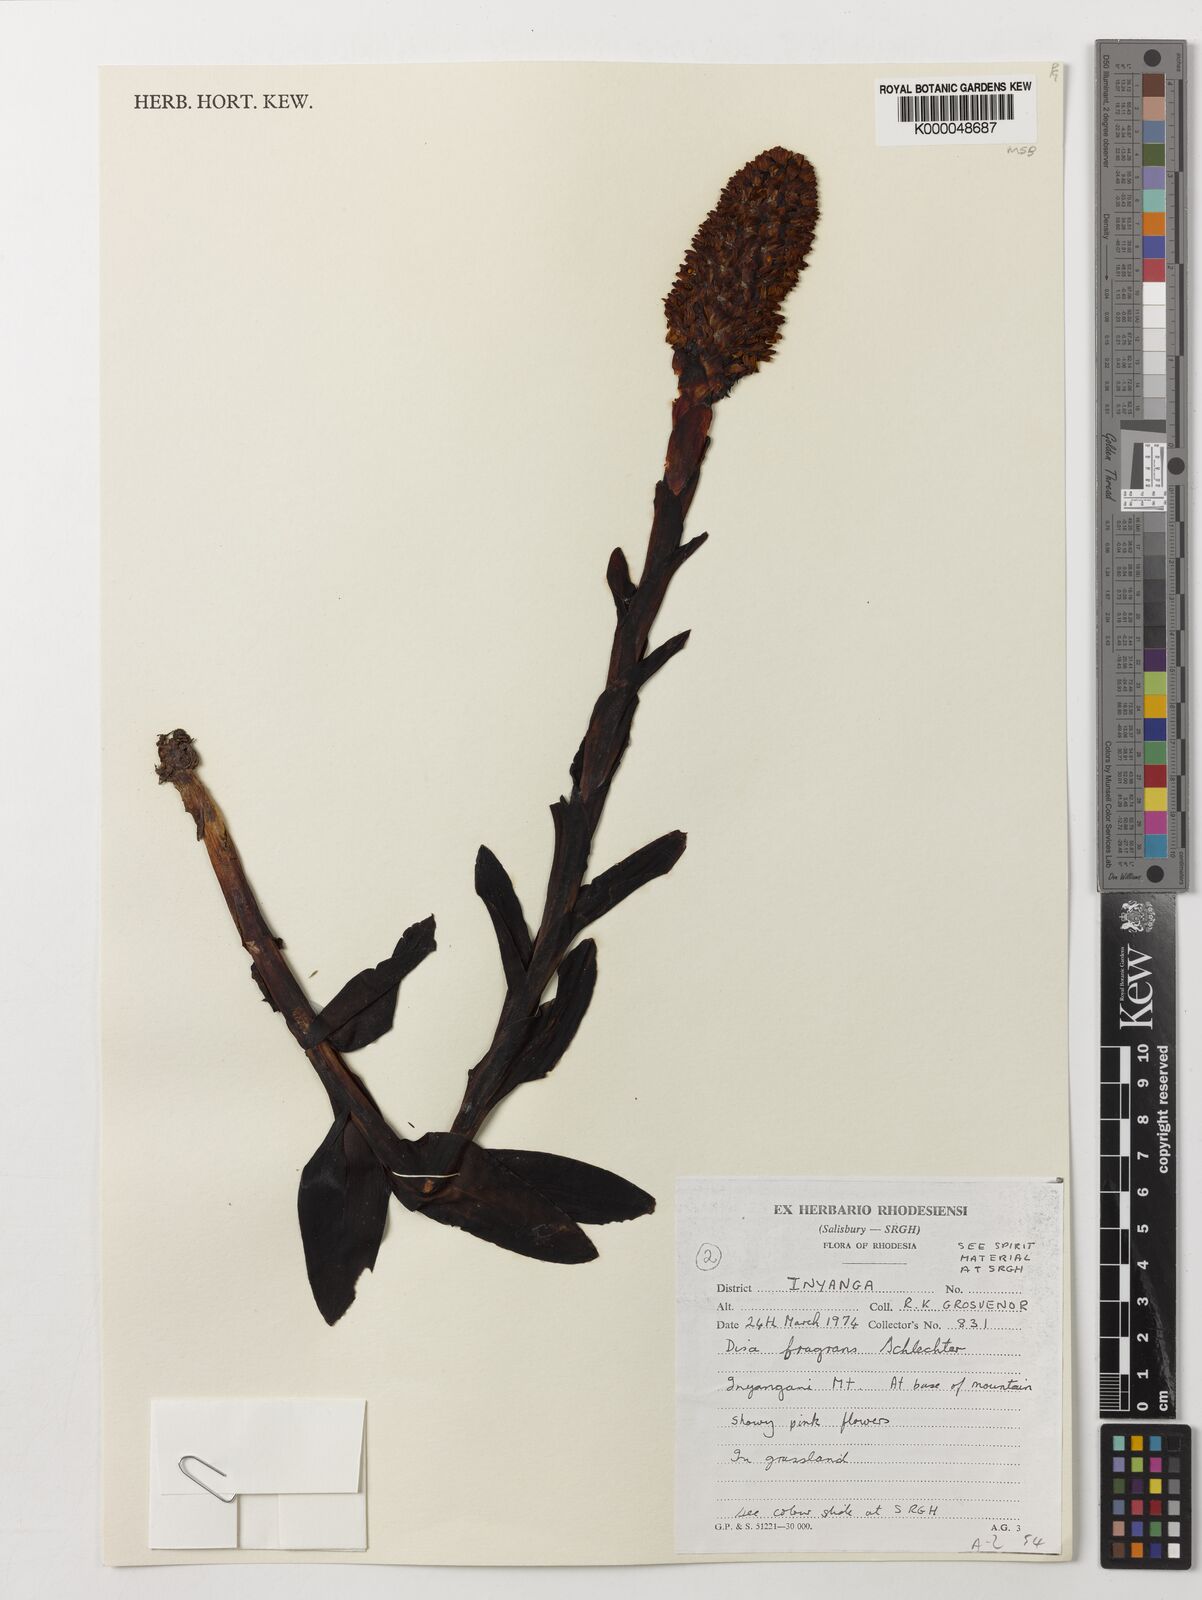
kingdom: Plantae
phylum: Tracheophyta
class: Liliopsida
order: Asparagales
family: Orchidaceae
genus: Disa
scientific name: Disa fragrans
